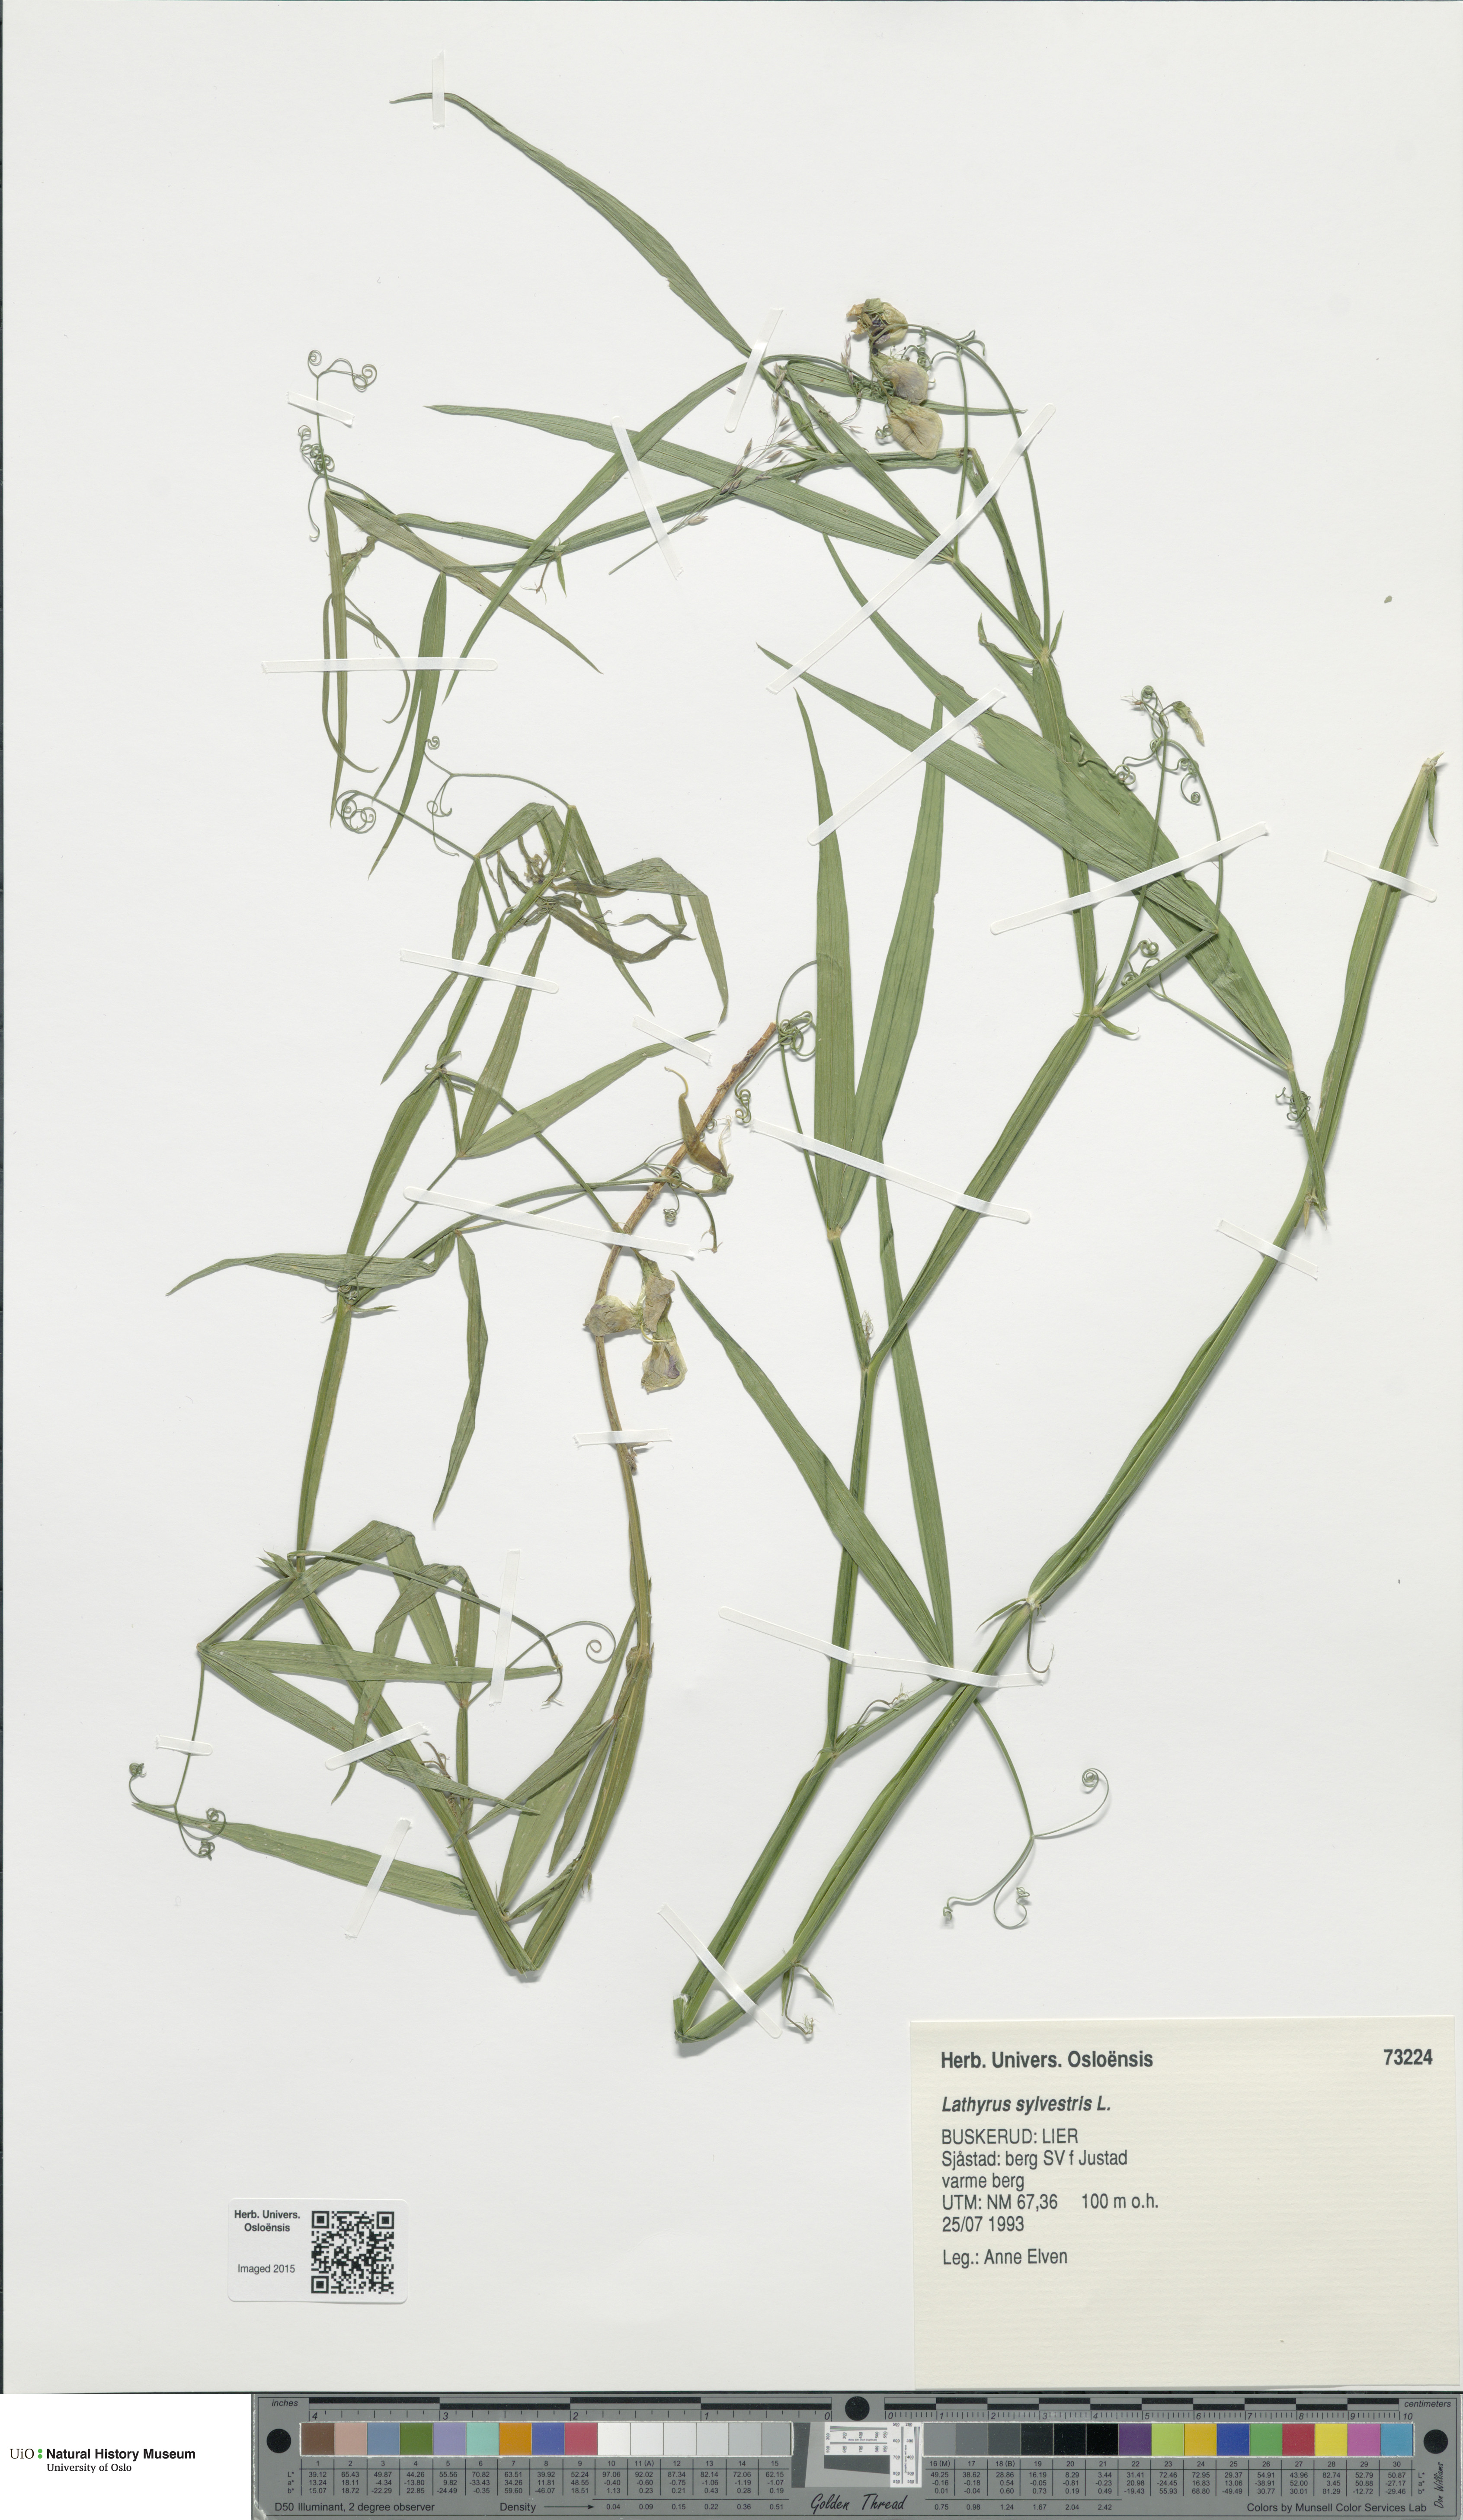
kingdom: Plantae
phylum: Tracheophyta
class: Magnoliopsida
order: Fabales
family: Fabaceae
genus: Lathyrus
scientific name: Lathyrus sylvestris
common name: Flat pea
